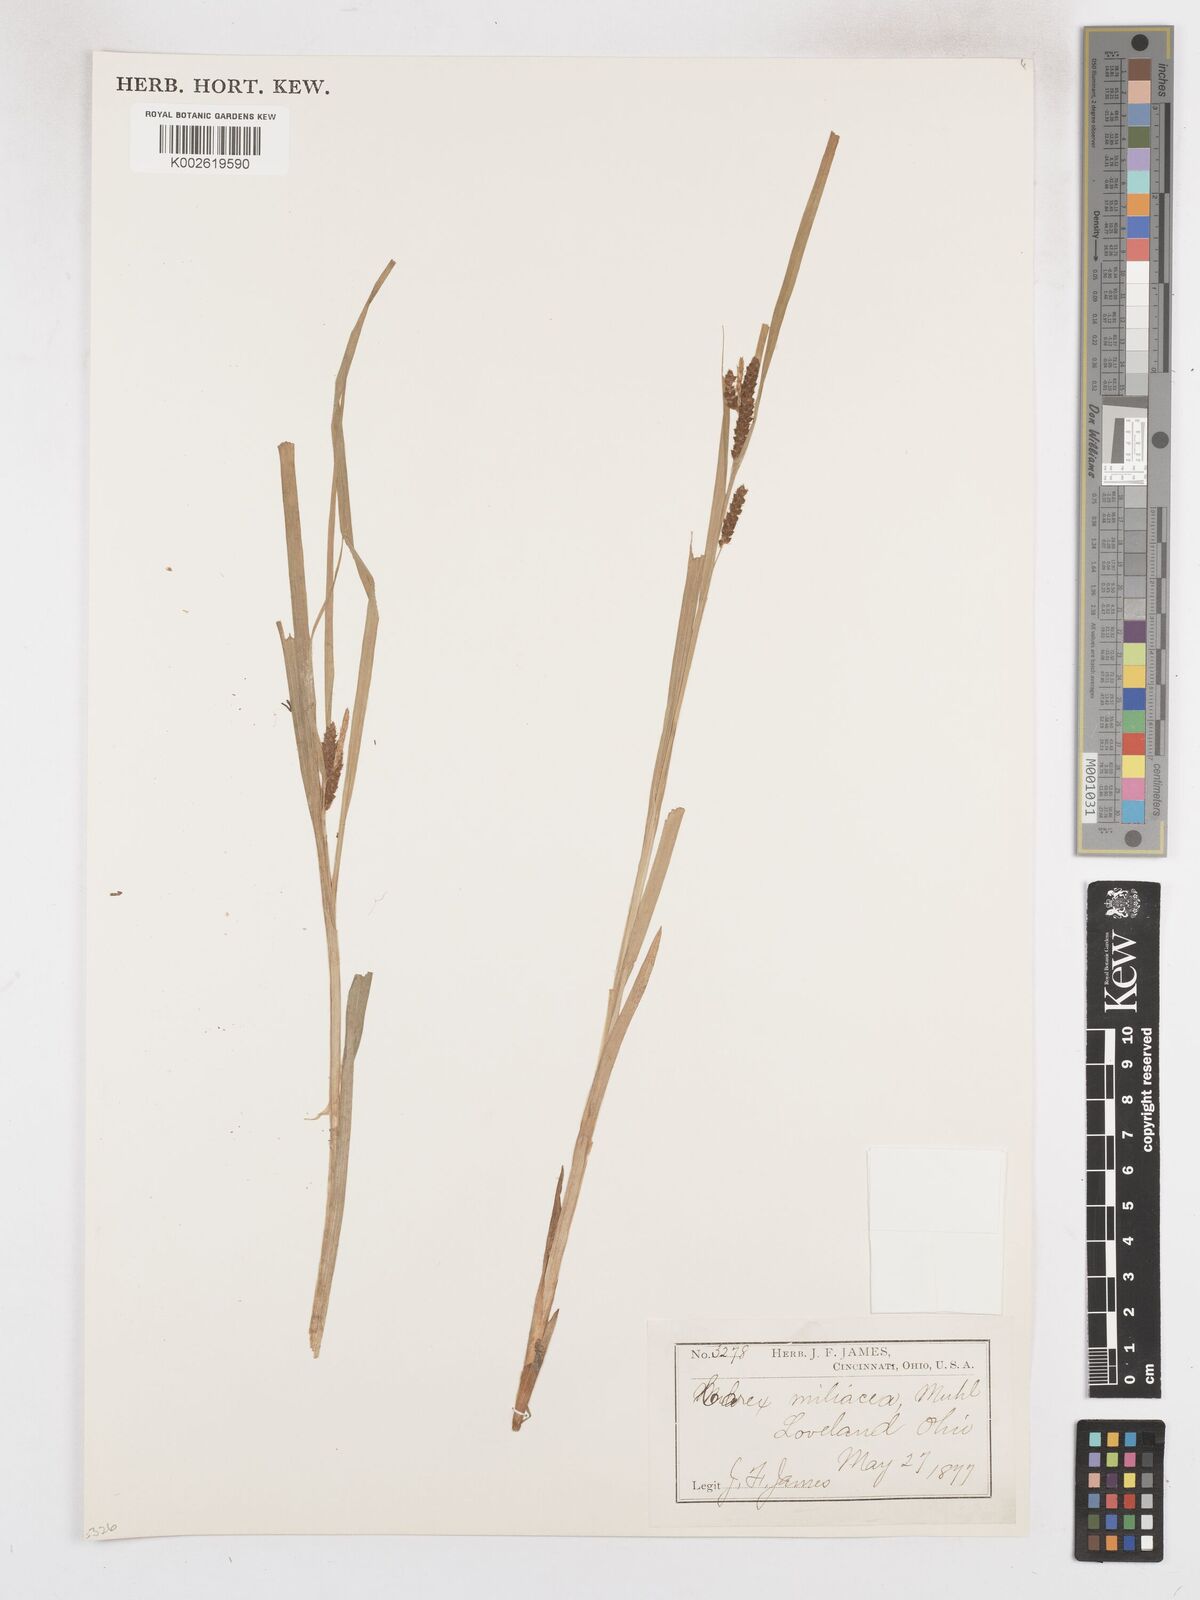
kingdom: Plantae
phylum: Tracheophyta
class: Liliopsida
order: Poales
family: Cyperaceae
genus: Carex
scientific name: Carex prasina
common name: Drooping sedge
